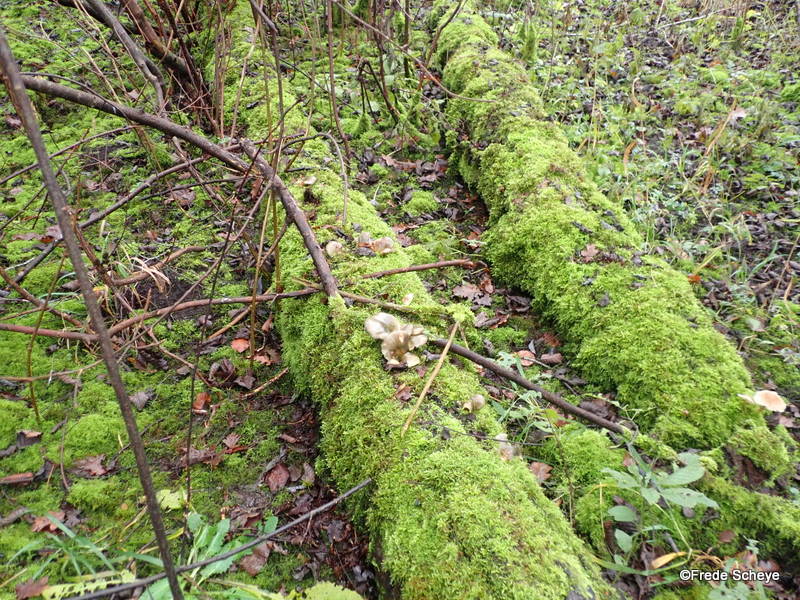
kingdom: Fungi
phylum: Basidiomycota
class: Agaricomycetes
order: Agaricales
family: Sarcomyxaceae
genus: Sarcomyxa
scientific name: Sarcomyxa serotina
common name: gummihat
